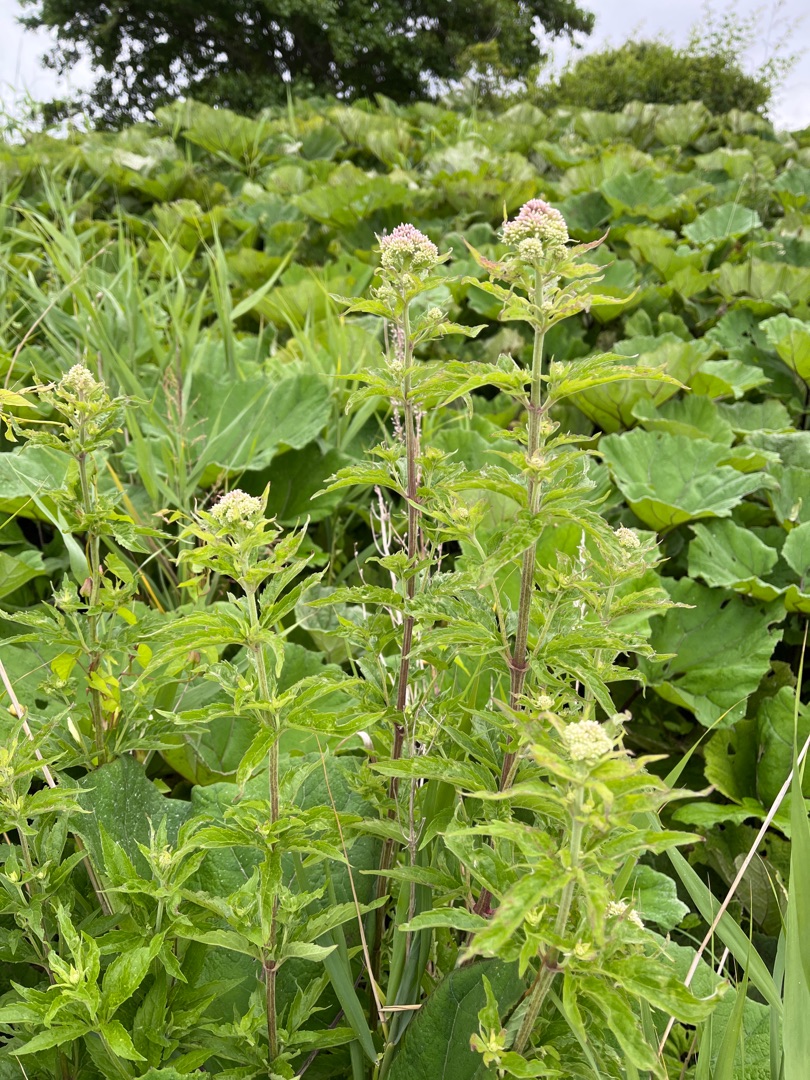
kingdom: Plantae
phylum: Tracheophyta
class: Magnoliopsida
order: Asterales
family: Asteraceae
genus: Eupatorium
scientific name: Eupatorium cannabinum
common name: Hjortetrøst
